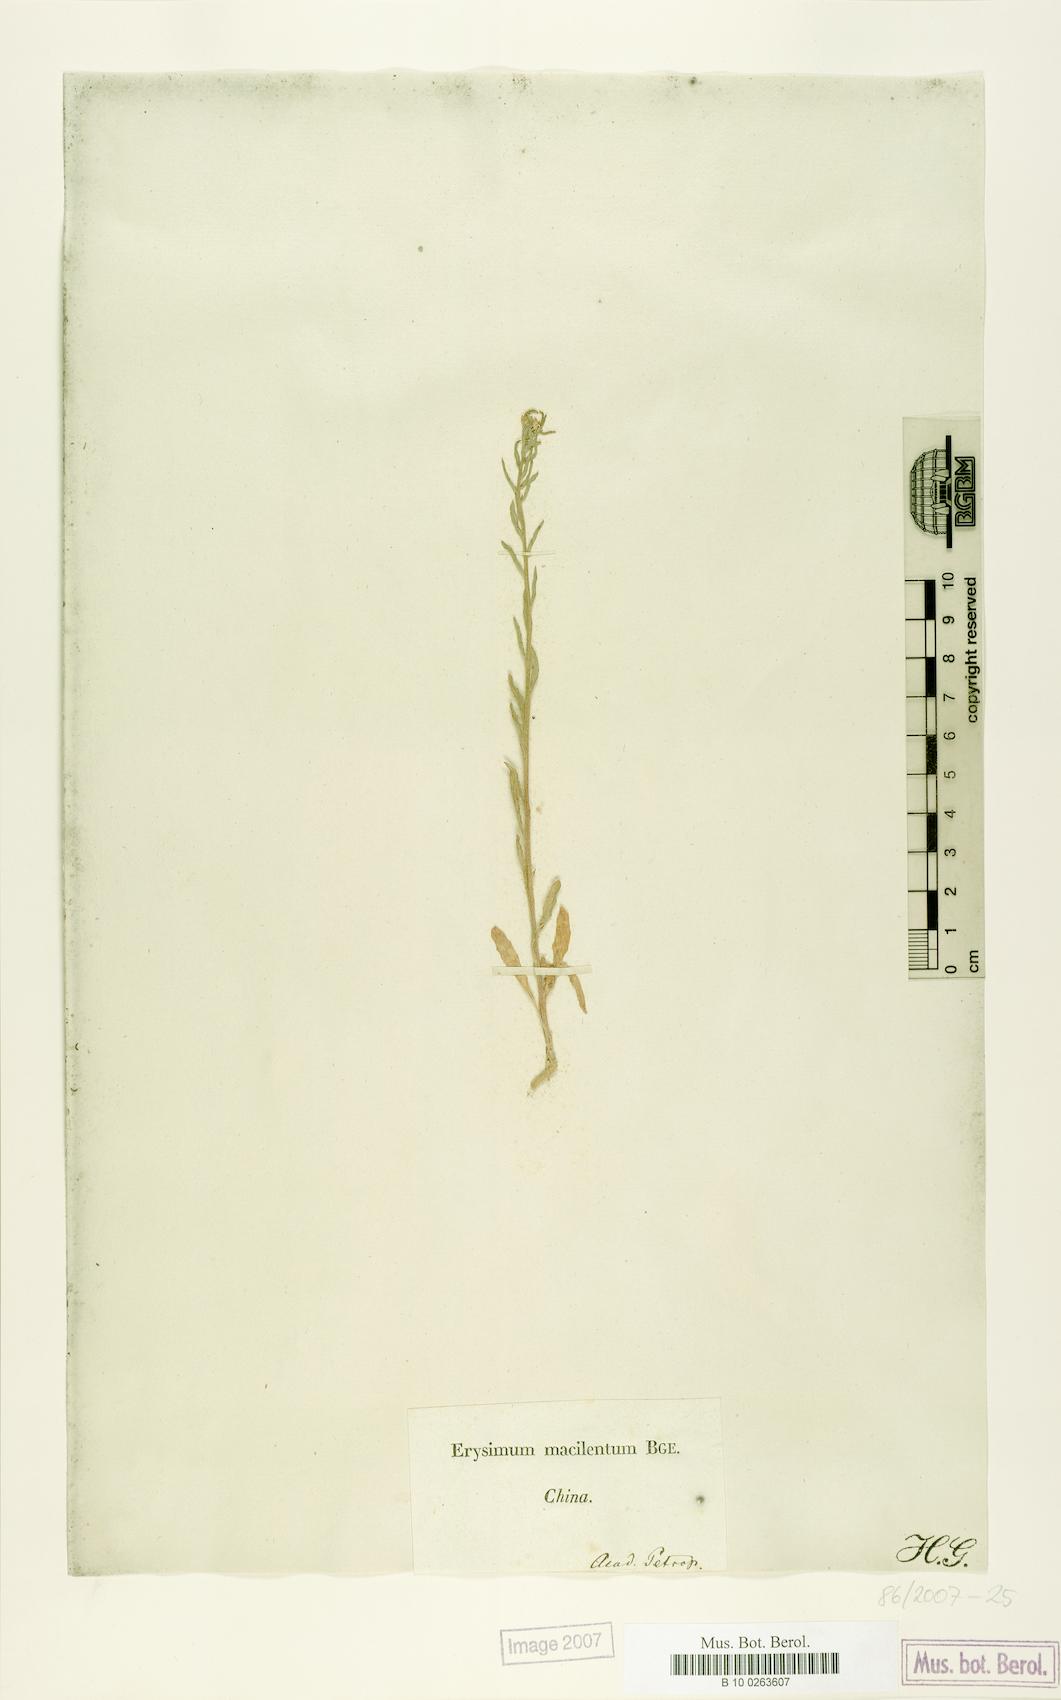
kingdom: Plantae
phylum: Tracheophyta
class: Magnoliopsida
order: Brassicales
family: Brassicaceae
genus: Erysimum
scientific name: Erysimum macilentum
